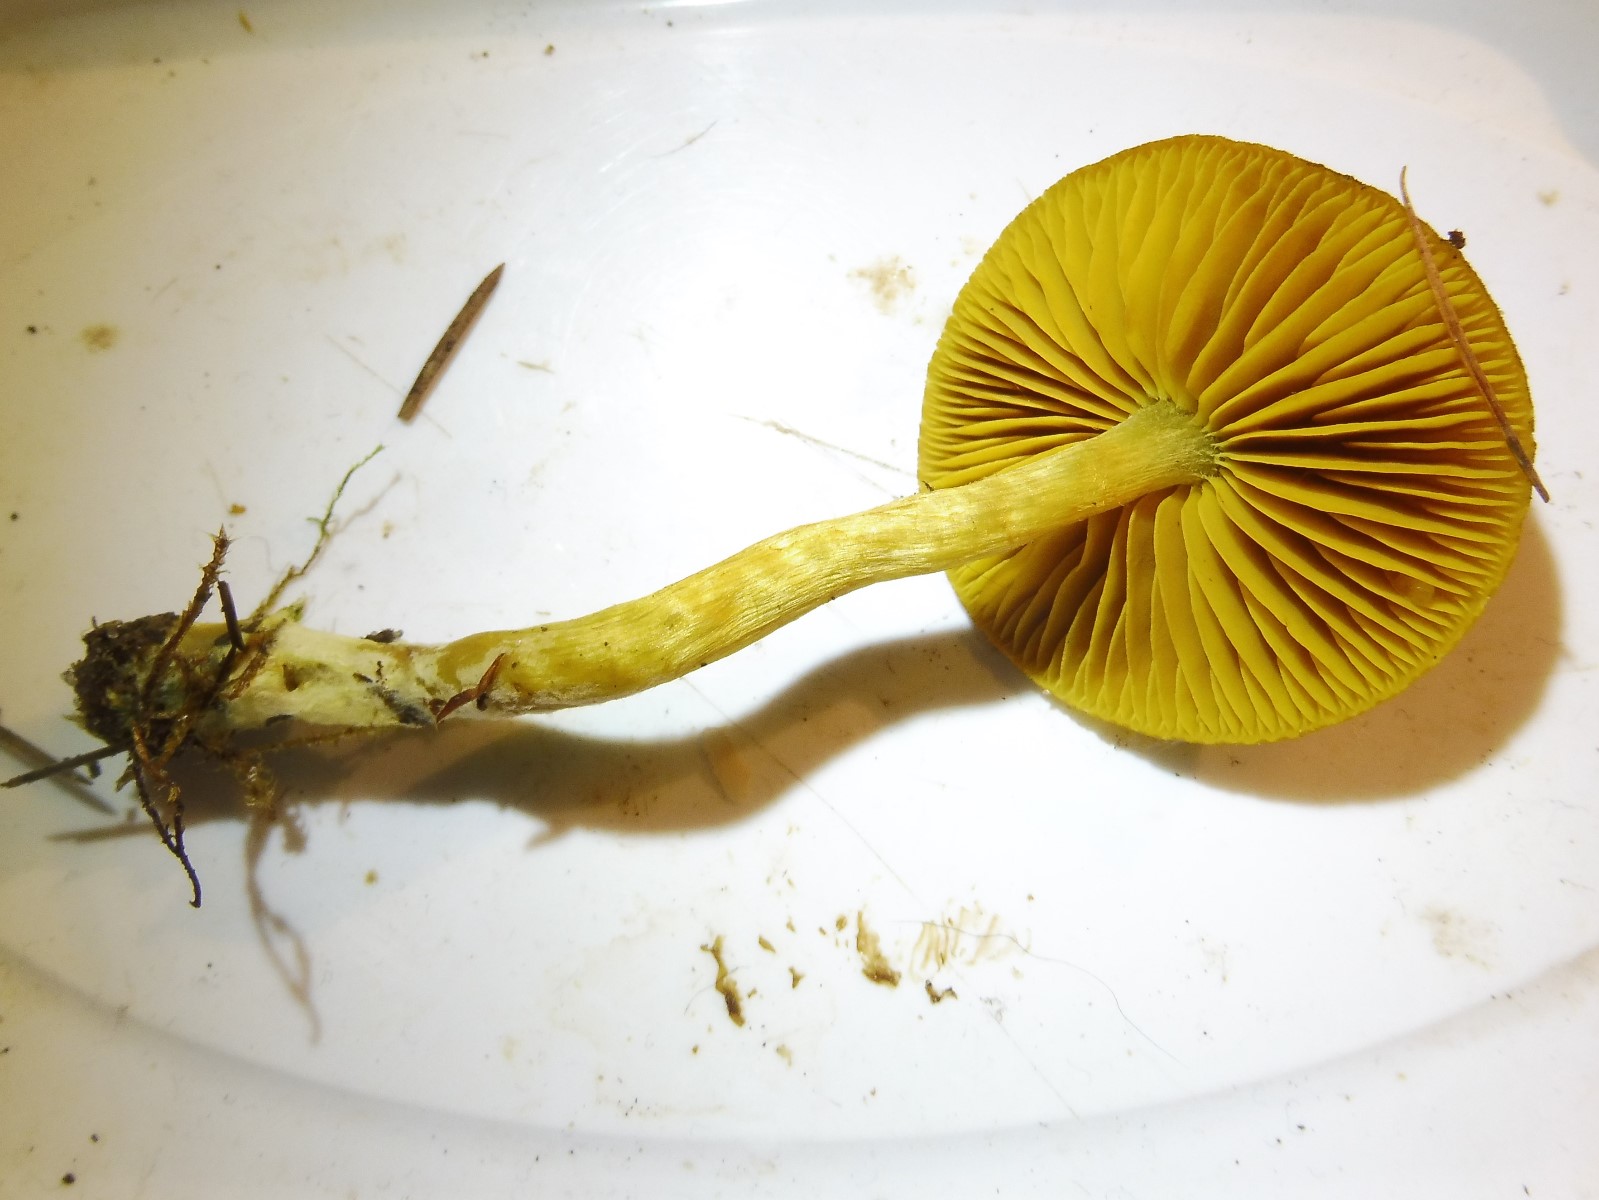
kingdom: Fungi
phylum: Basidiomycota
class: Agaricomycetes
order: Agaricales
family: Cortinariaceae
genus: Cortinarius
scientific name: Cortinarius
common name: gulbladet slørhat
